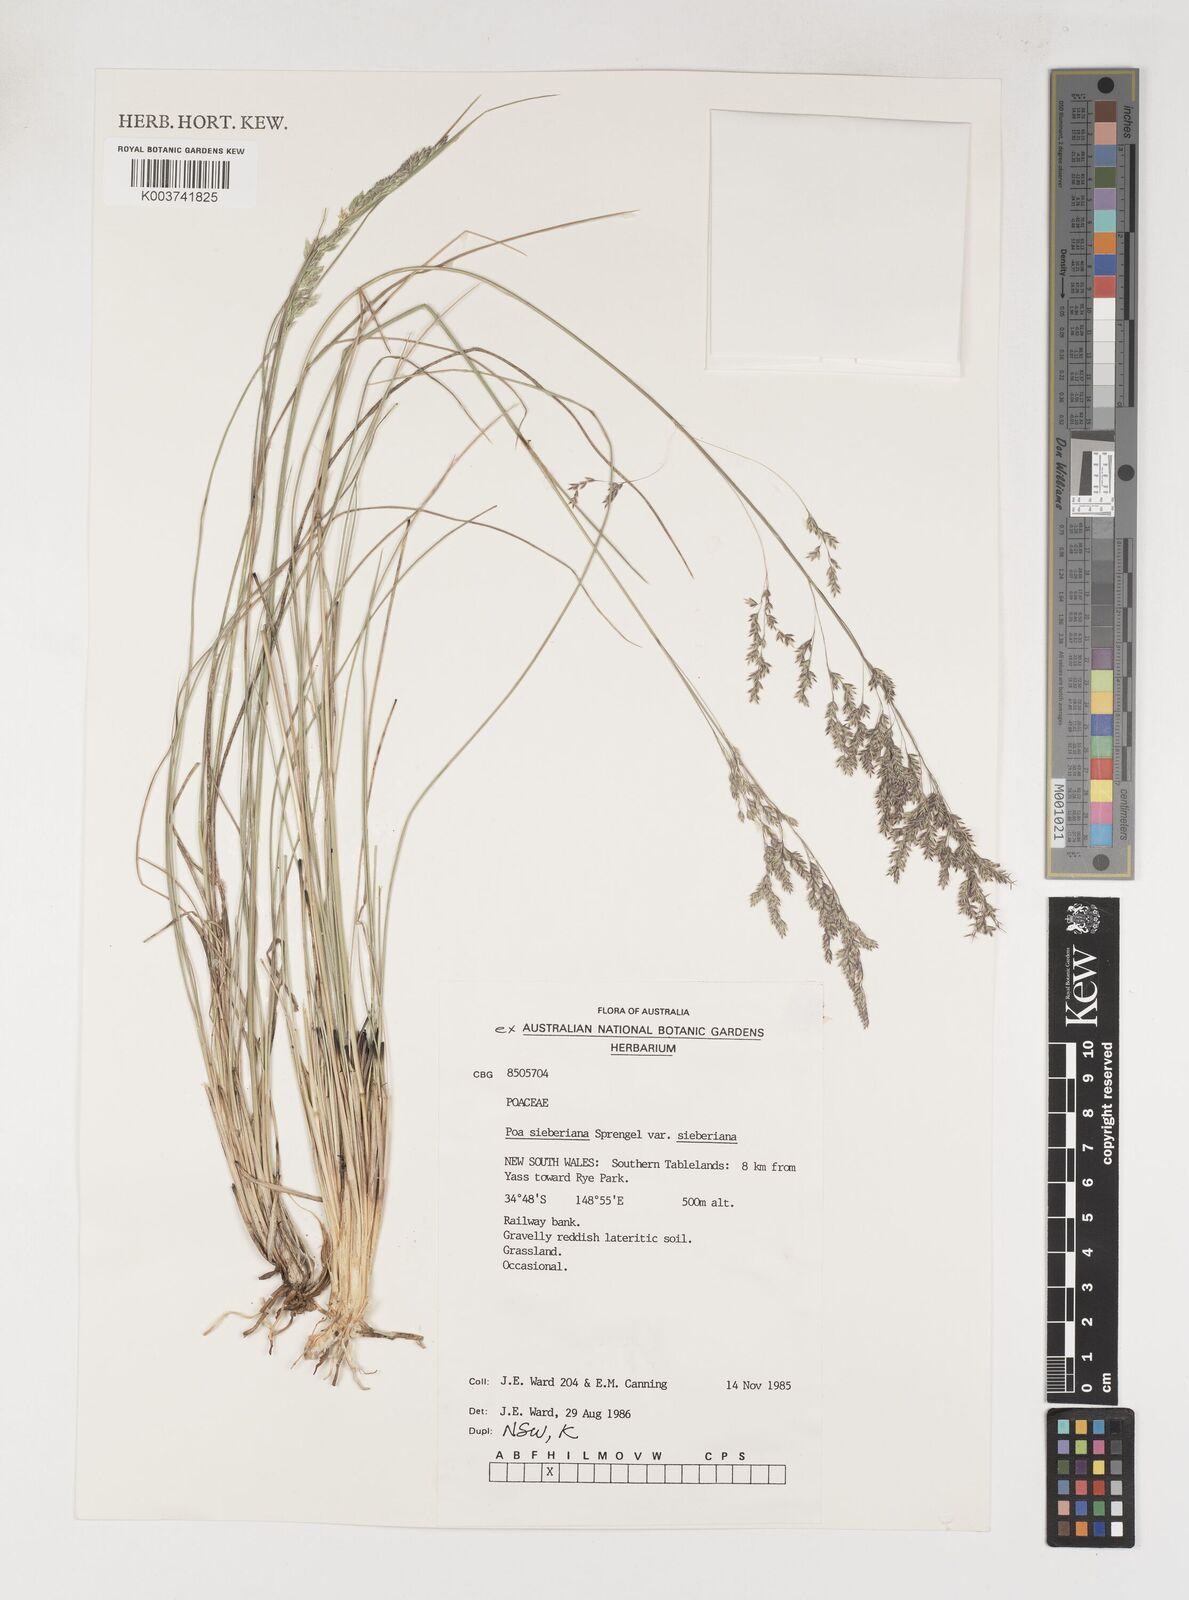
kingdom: Plantae
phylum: Tracheophyta
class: Liliopsida
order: Poales
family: Poaceae
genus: Poa
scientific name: Poa sieberiana
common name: Tussock poa
